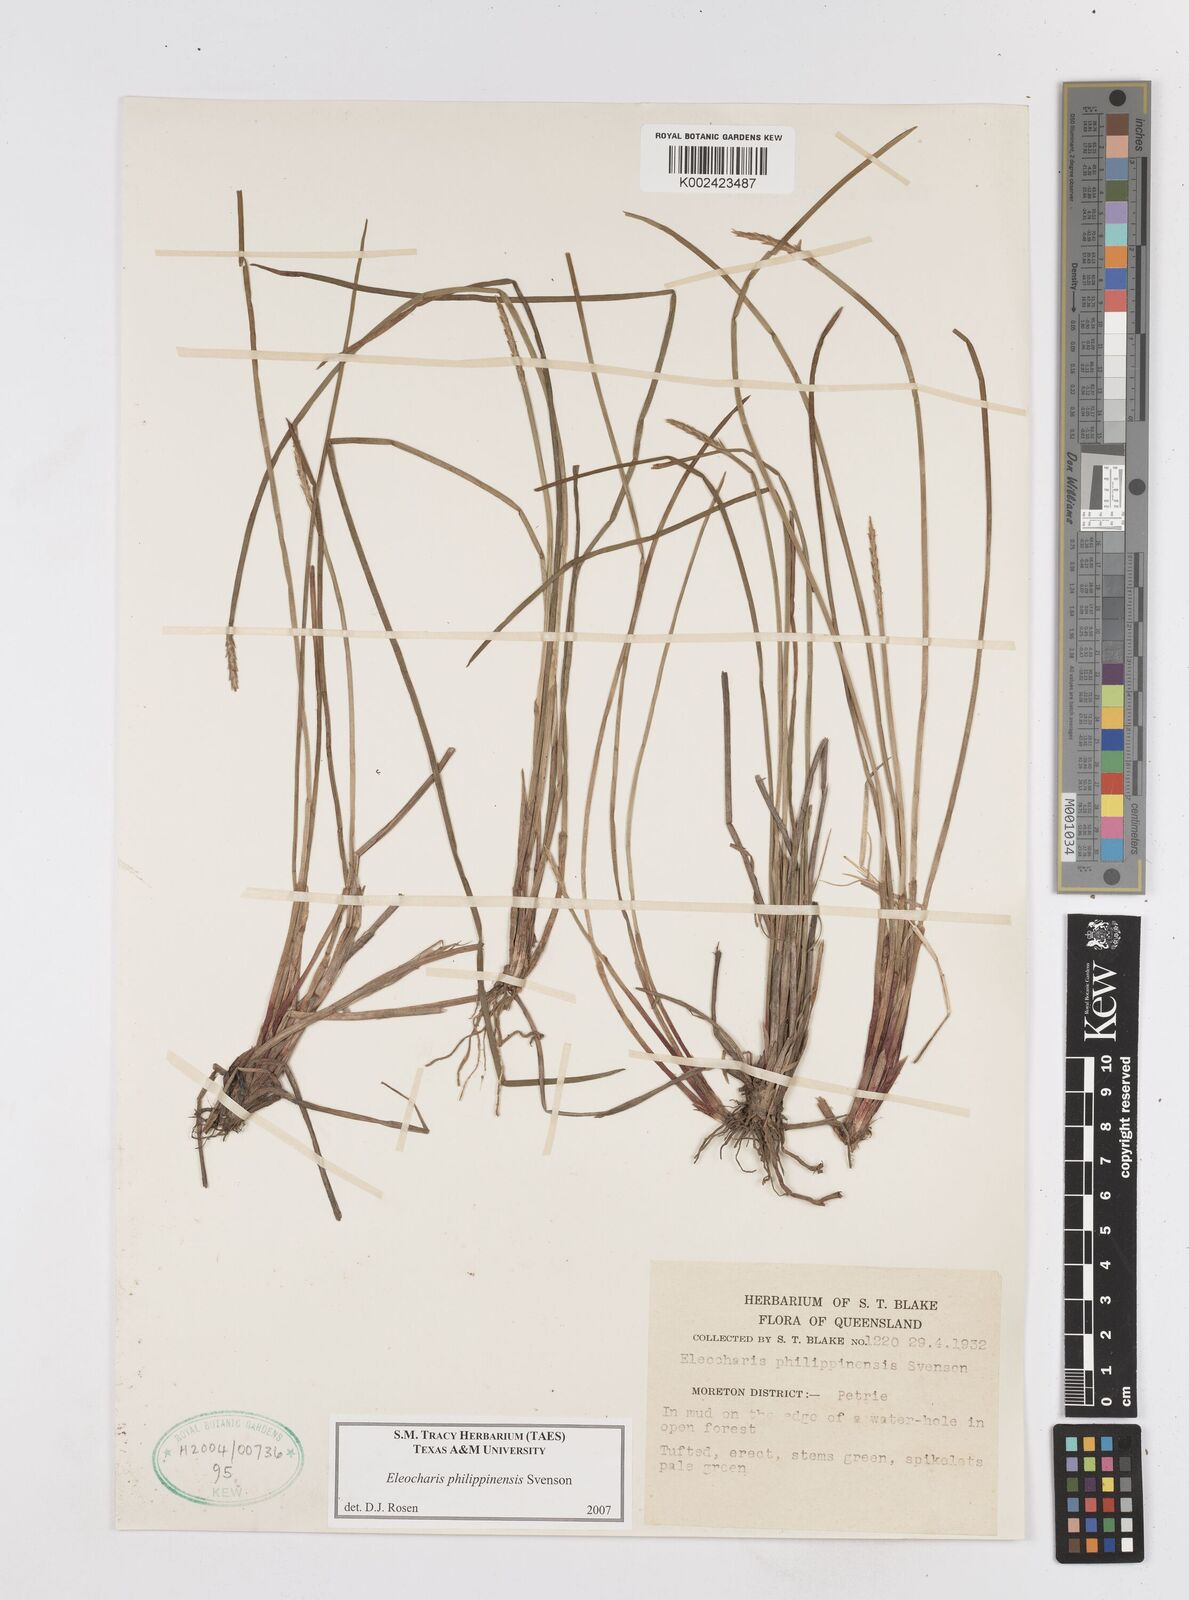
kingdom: Plantae
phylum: Tracheophyta
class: Liliopsida
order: Poales
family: Cyperaceae
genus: Eleocharis
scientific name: Eleocharis philippinensis
